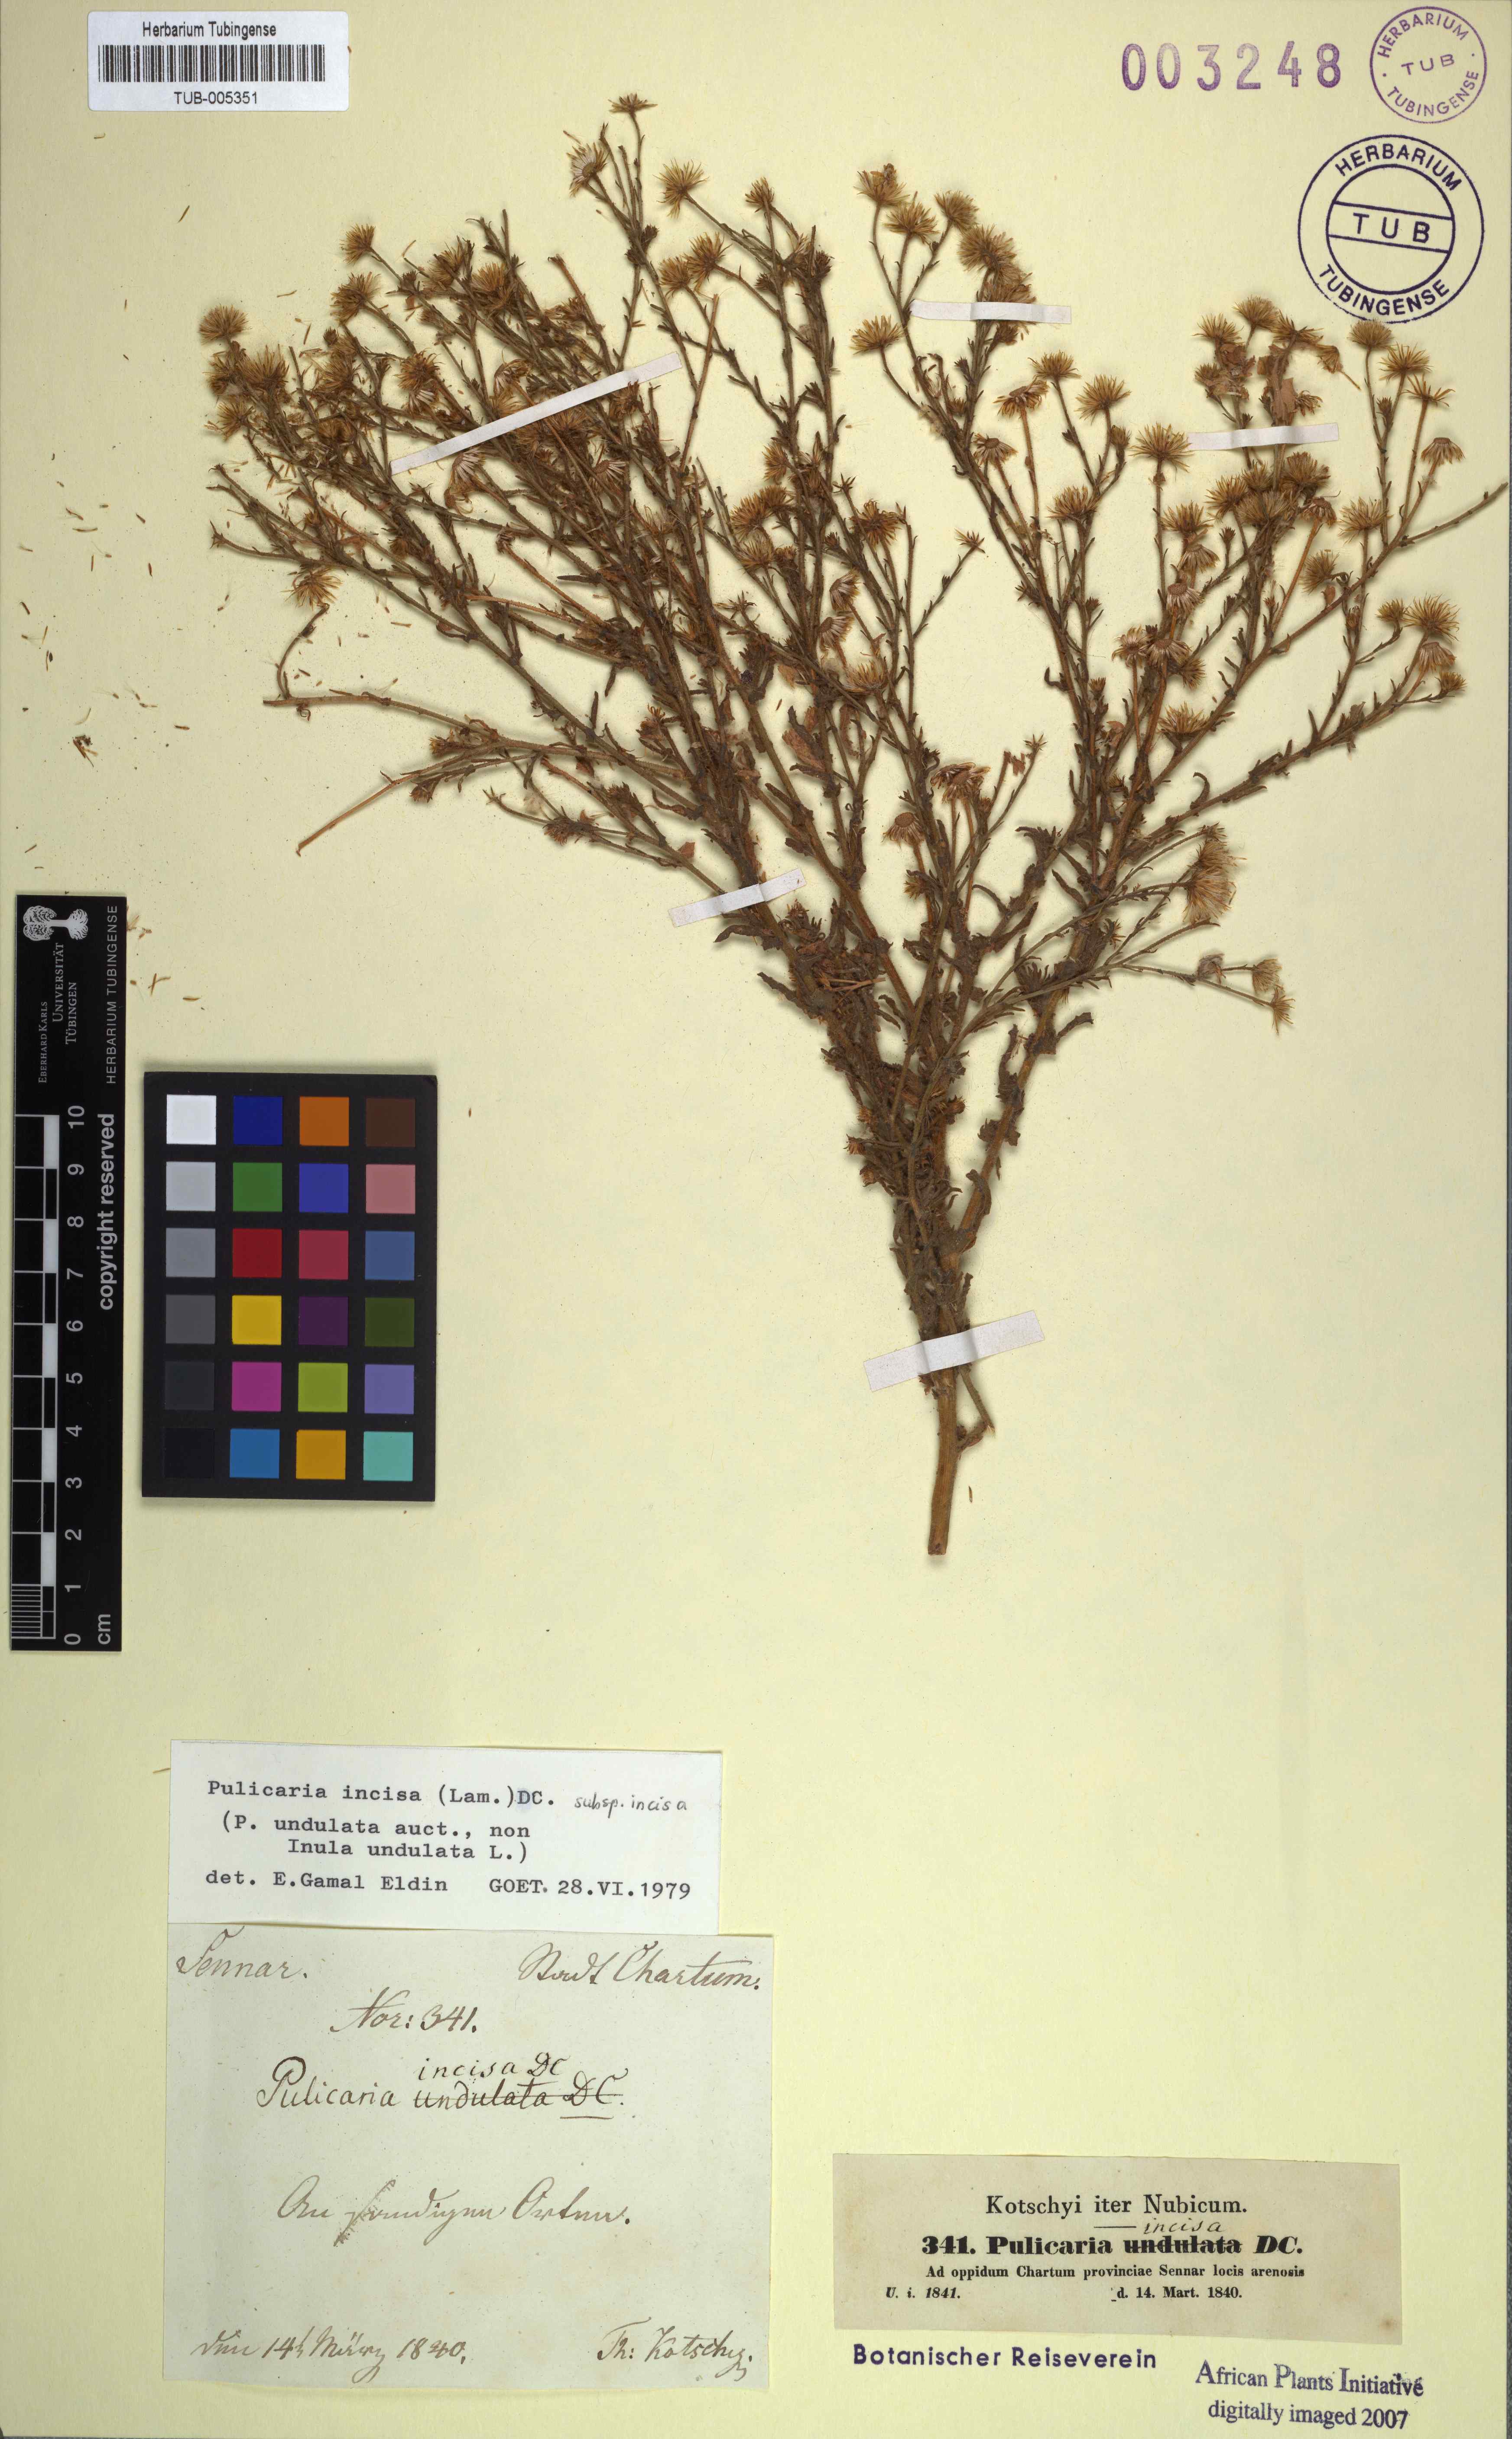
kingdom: Plantae
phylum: Tracheophyta
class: Magnoliopsida
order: Asterales
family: Asteraceae
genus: Pulicaria
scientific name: Pulicaria incisa
